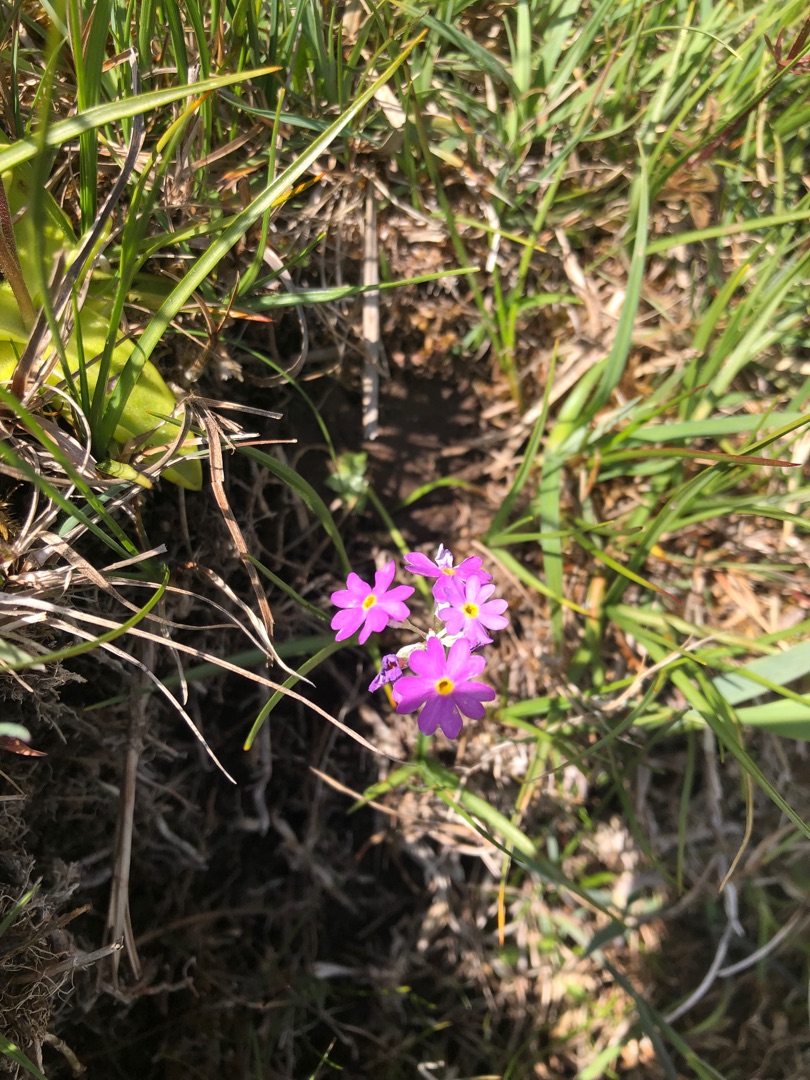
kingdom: Plantae
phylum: Tracheophyta
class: Magnoliopsida
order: Ericales
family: Primulaceae
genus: Primula
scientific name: Primula farinosa
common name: Melet kodriver
